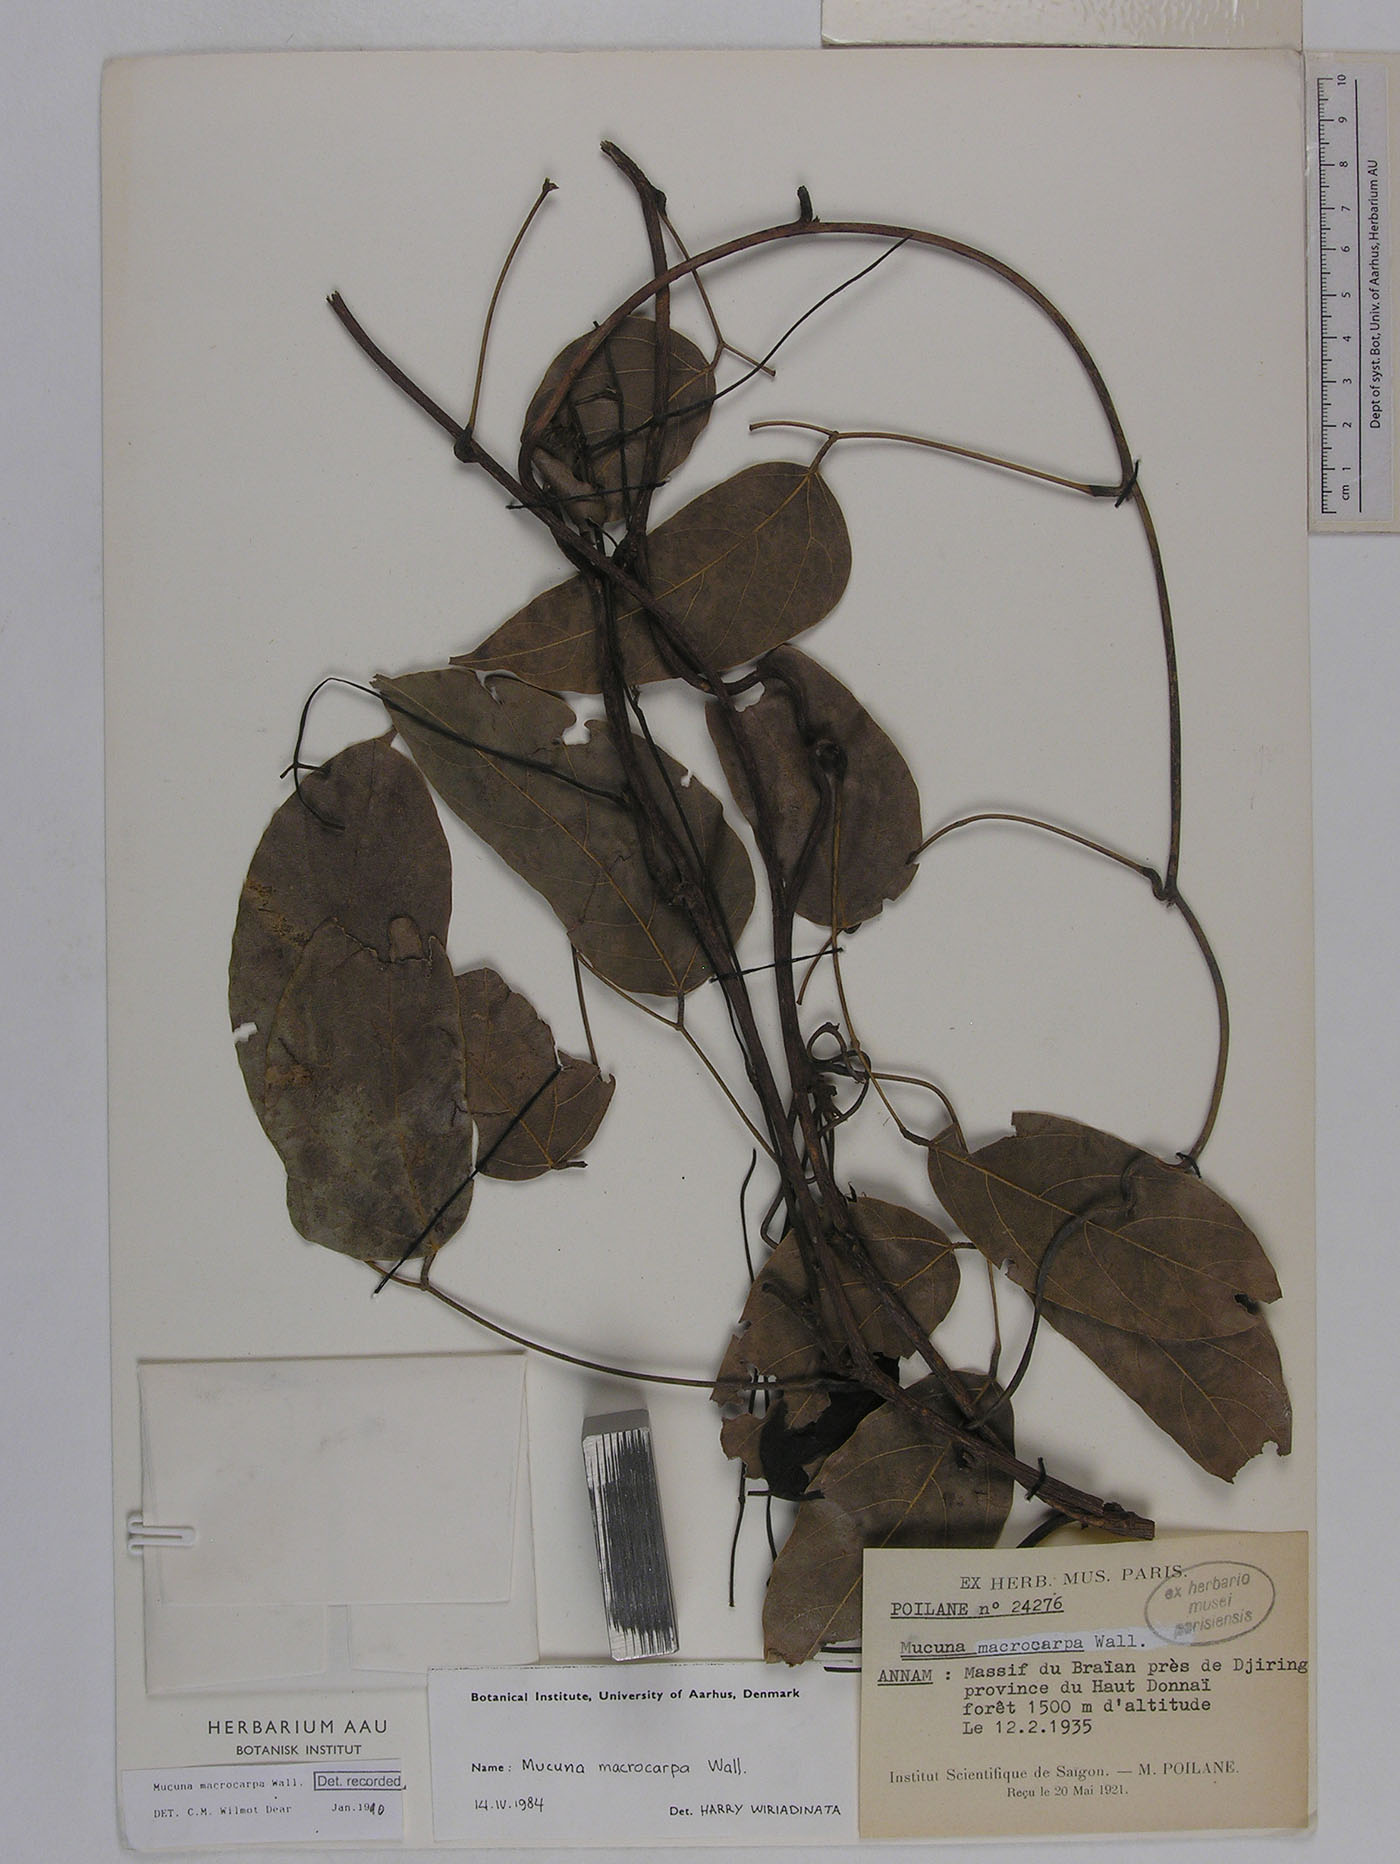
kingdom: Plantae
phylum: Tracheophyta
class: Magnoliopsida
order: Fabales
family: Fabaceae
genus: Mucuna
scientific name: Mucuna macrocarpa
